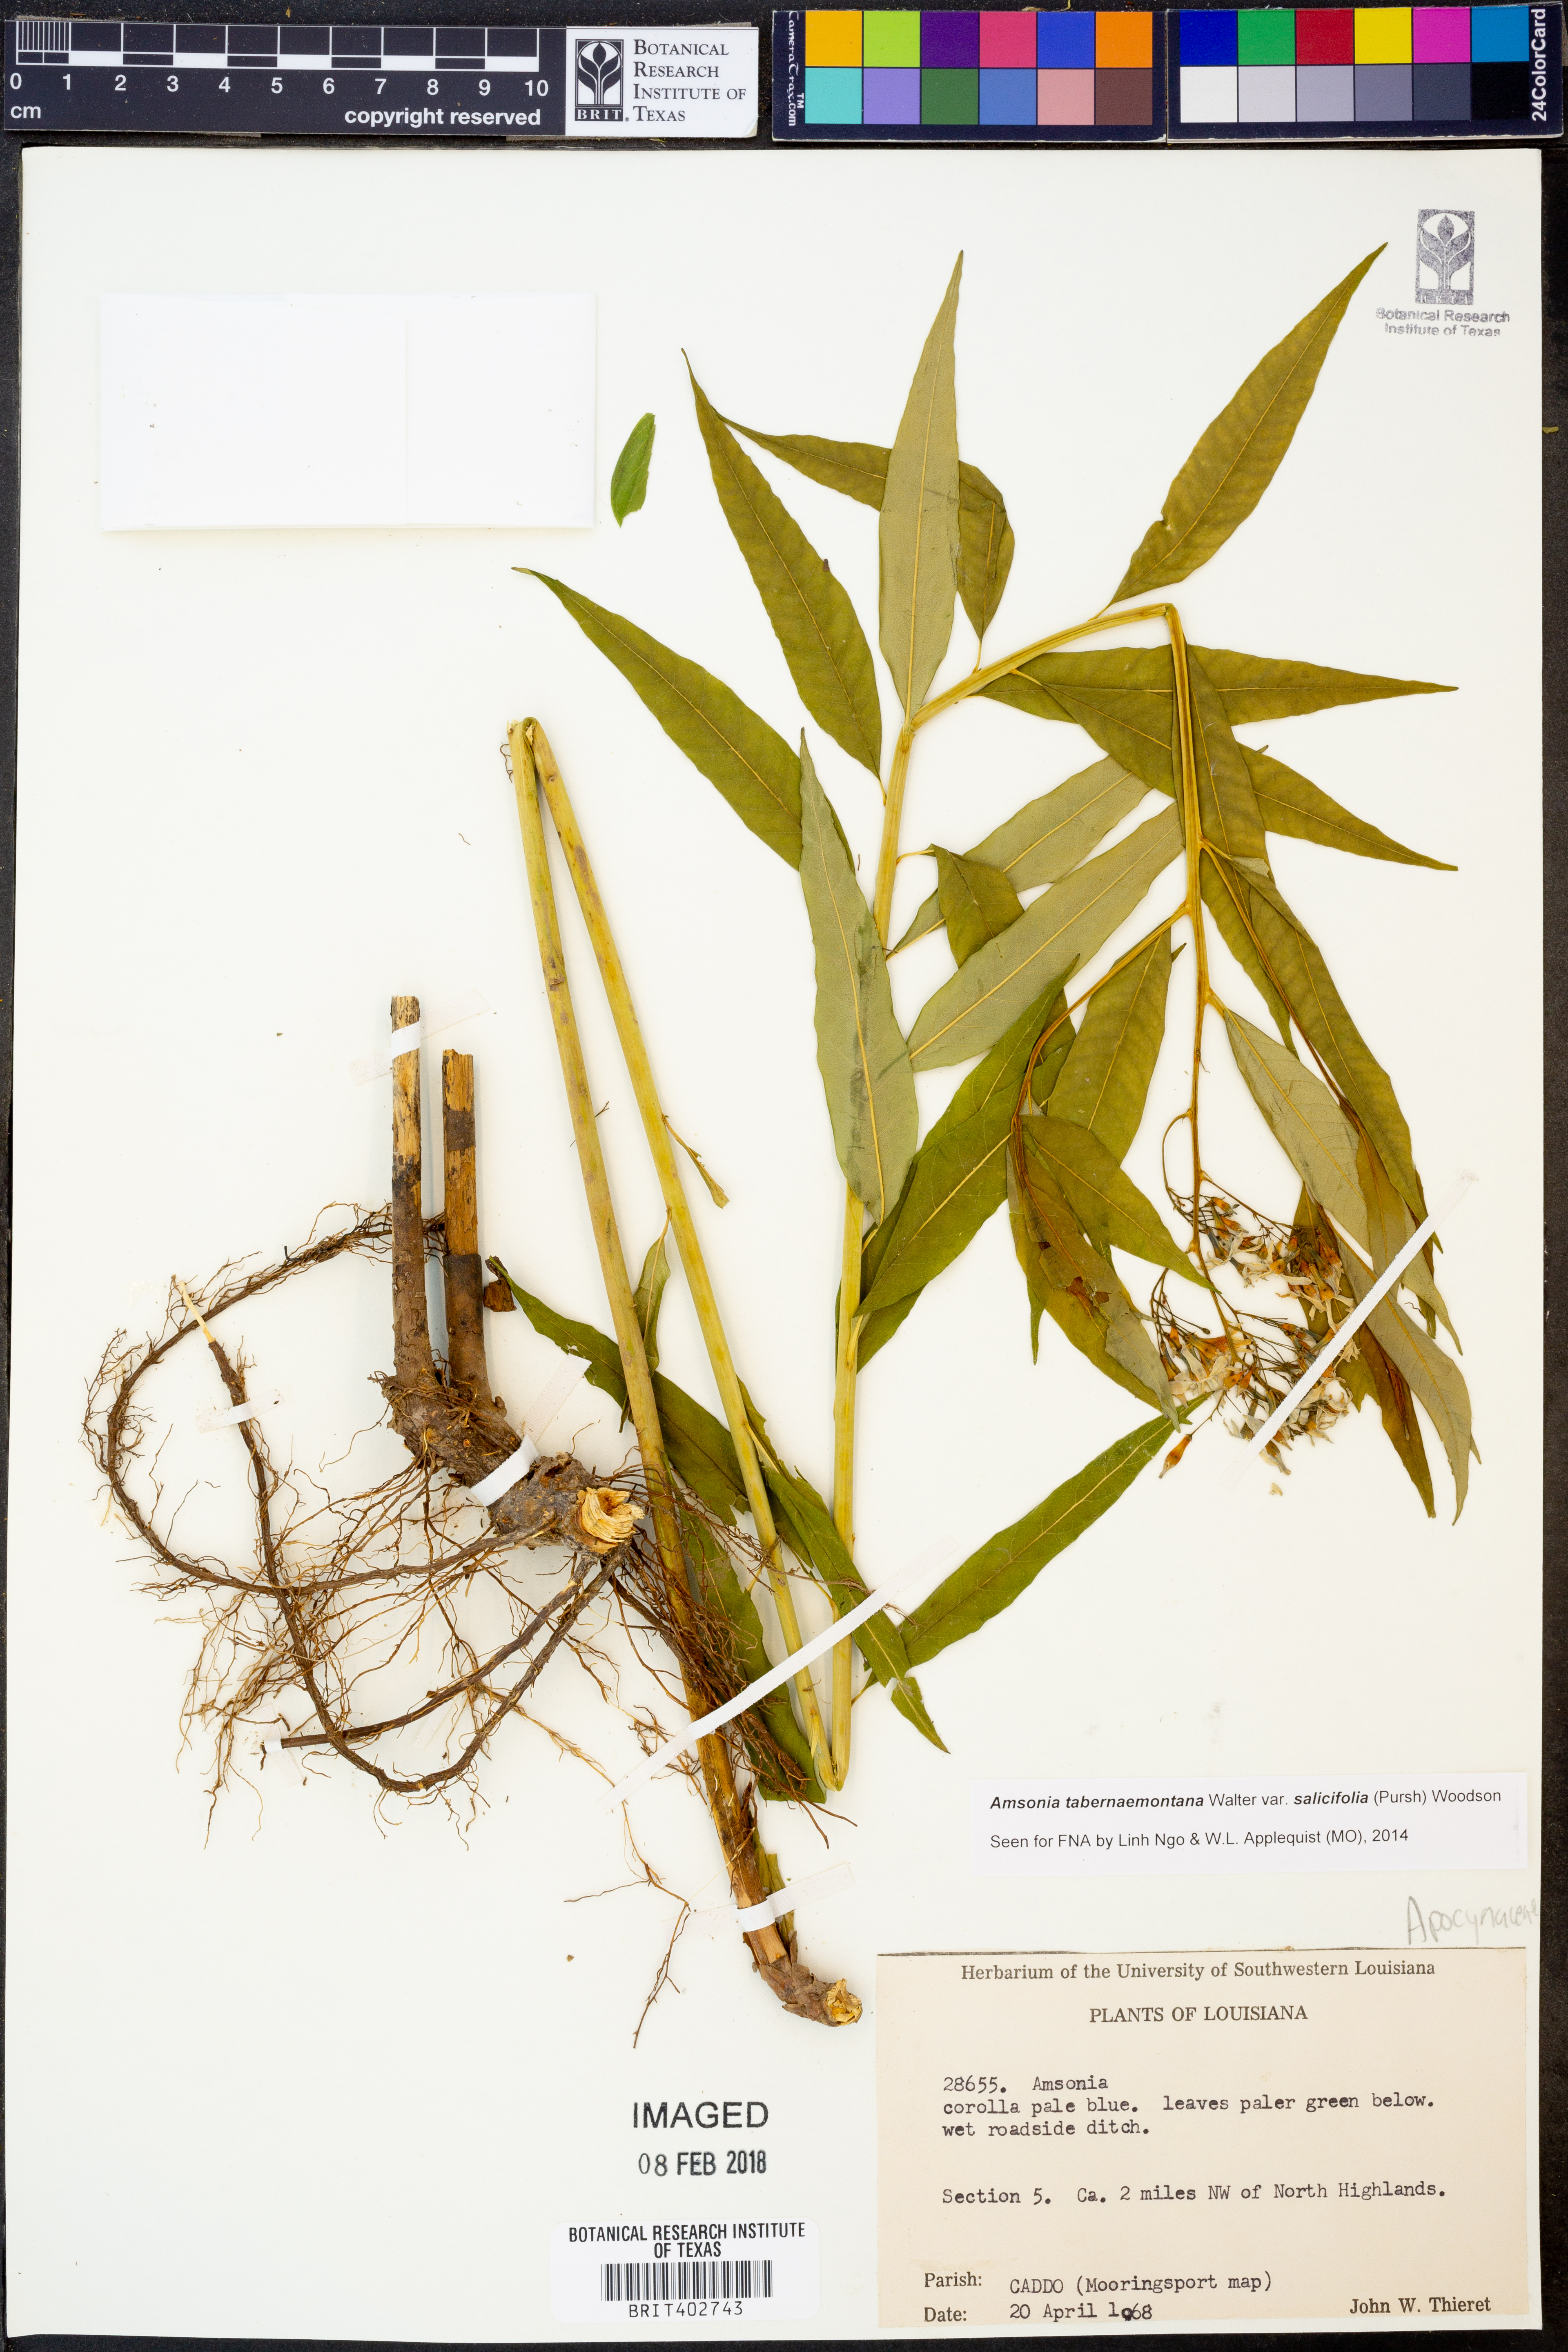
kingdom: Plantae
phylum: Tracheophyta
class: Magnoliopsida
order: Gentianales
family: Apocynaceae
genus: Amsonia
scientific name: Amsonia tabernaemontana
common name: Texas-star
